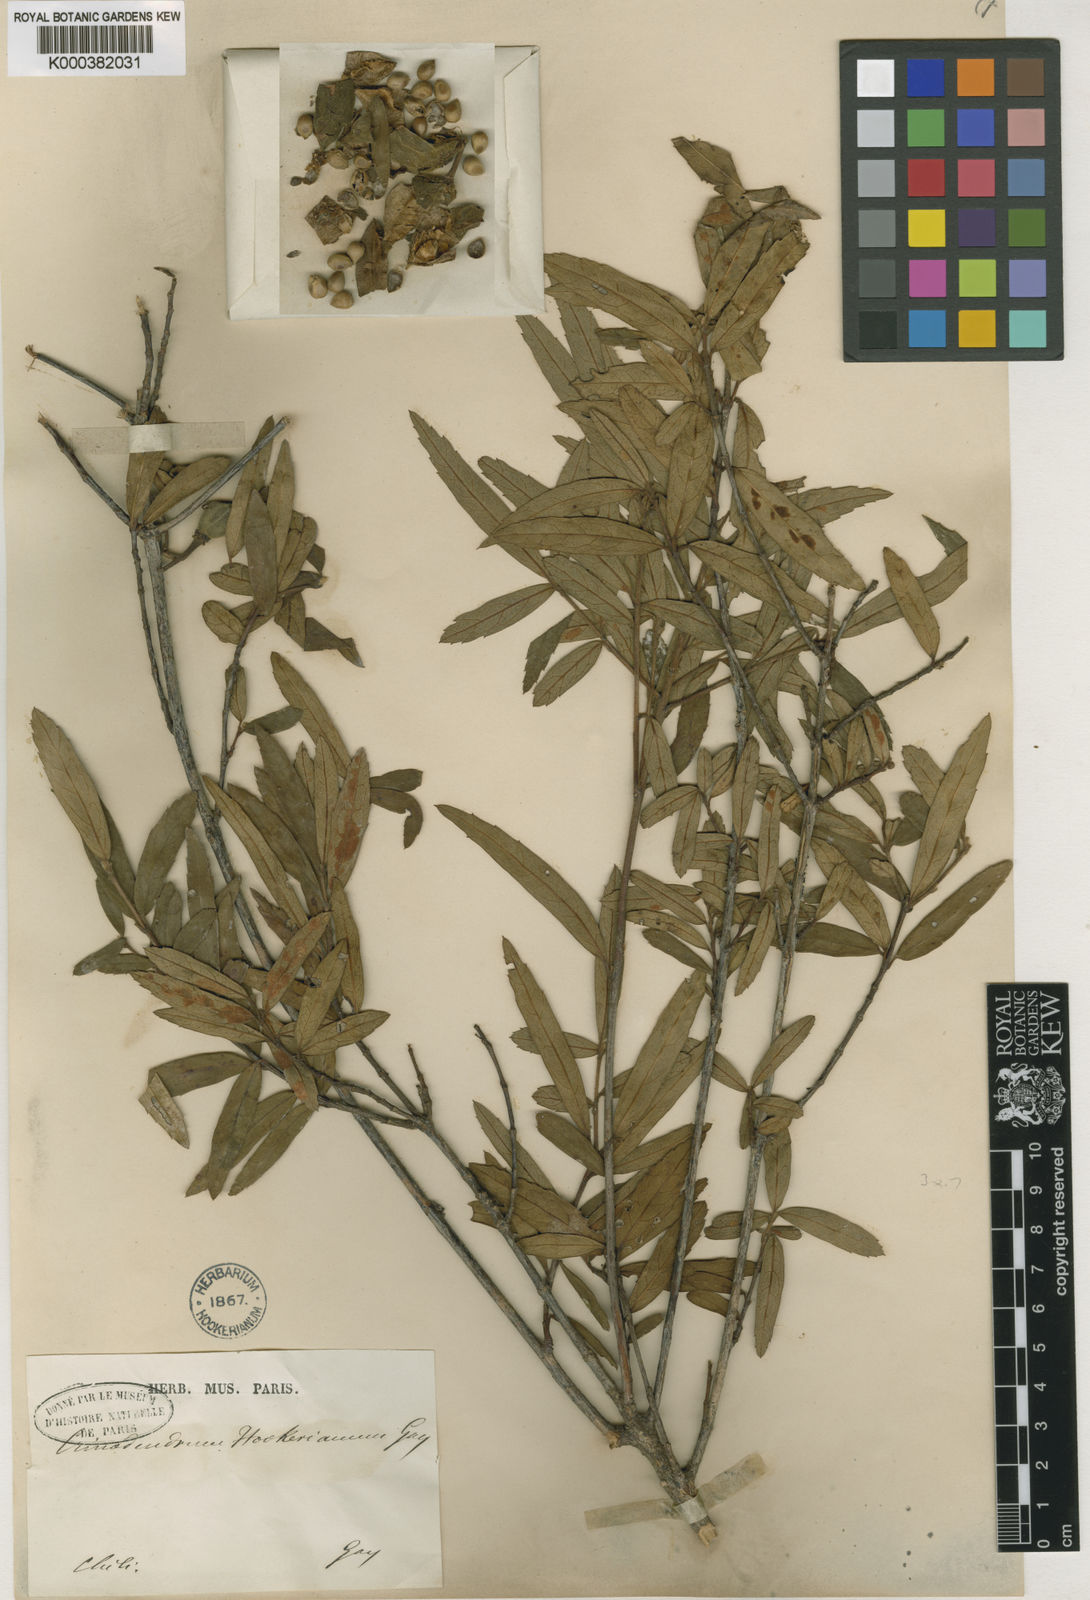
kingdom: Plantae
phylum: Tracheophyta
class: Magnoliopsida
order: Oxalidales
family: Elaeocarpaceae
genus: Crinodendron
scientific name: Crinodendron hookerianum
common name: Lanterntree
